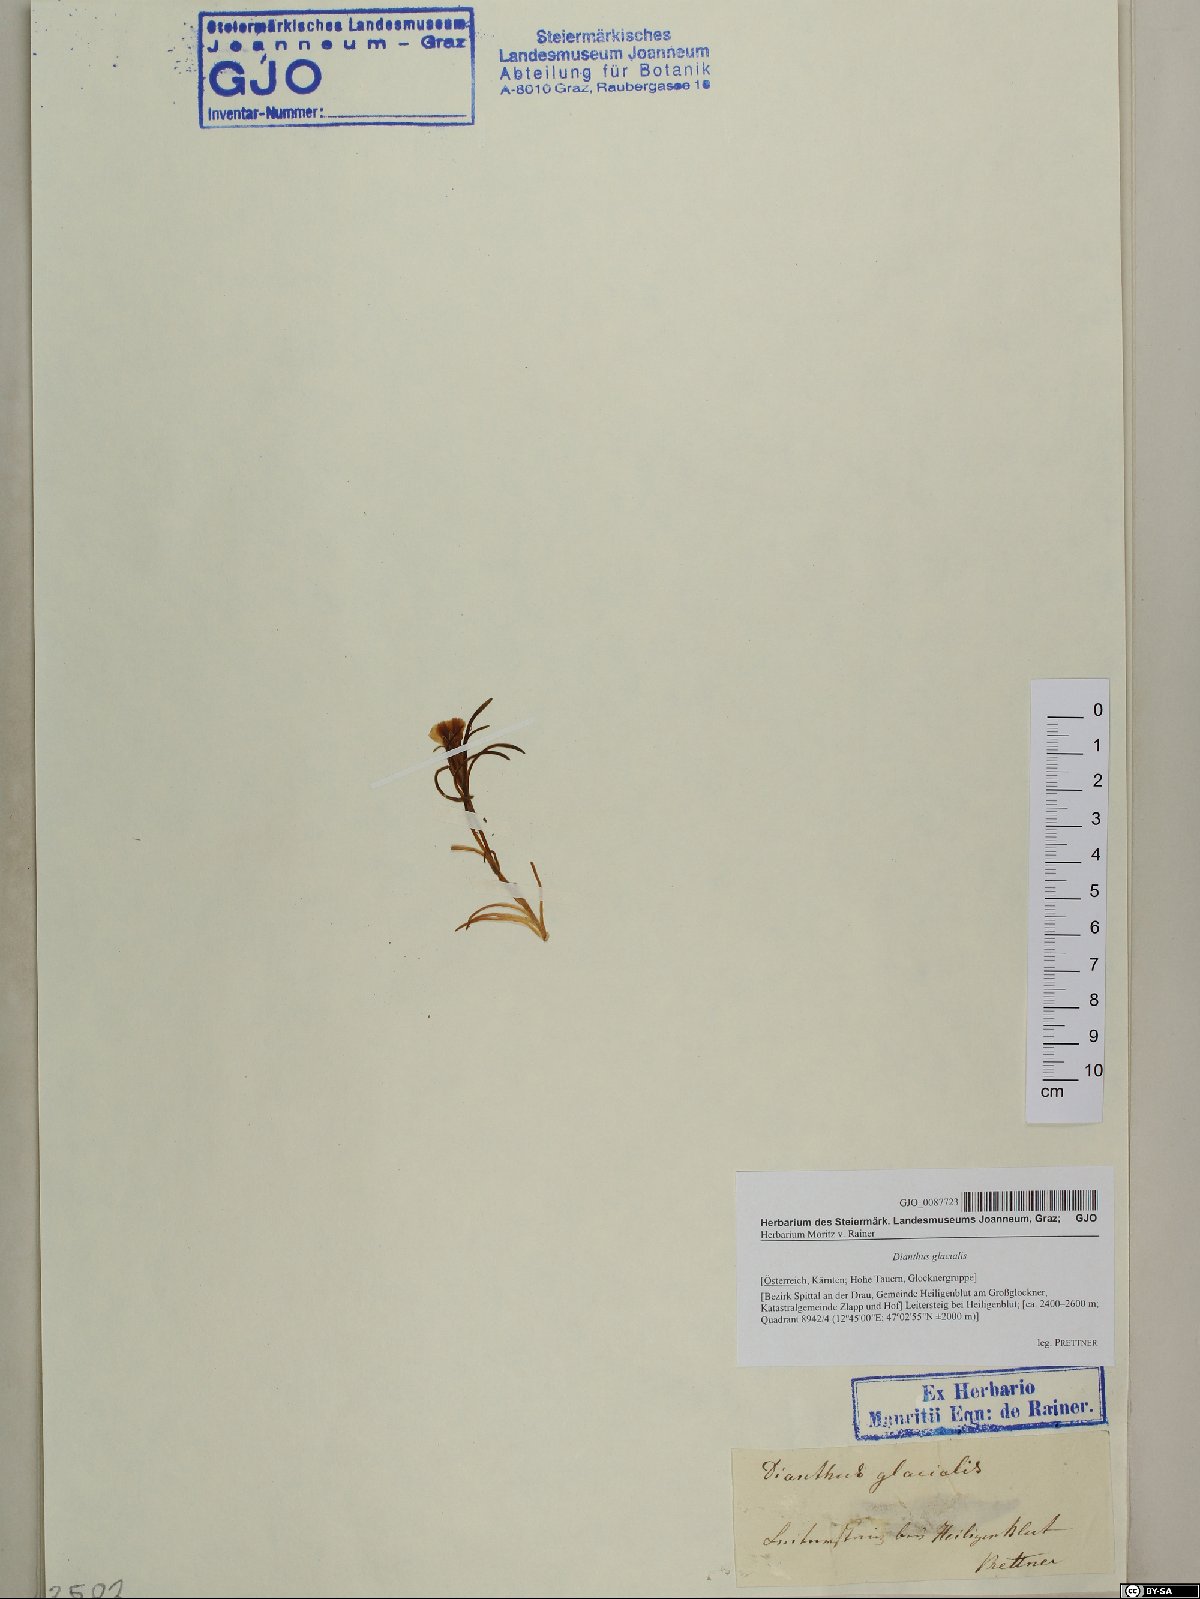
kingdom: Plantae
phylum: Tracheophyta
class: Magnoliopsida
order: Caryophyllales
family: Caryophyllaceae
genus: Dianthus
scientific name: Dianthus glacialis
